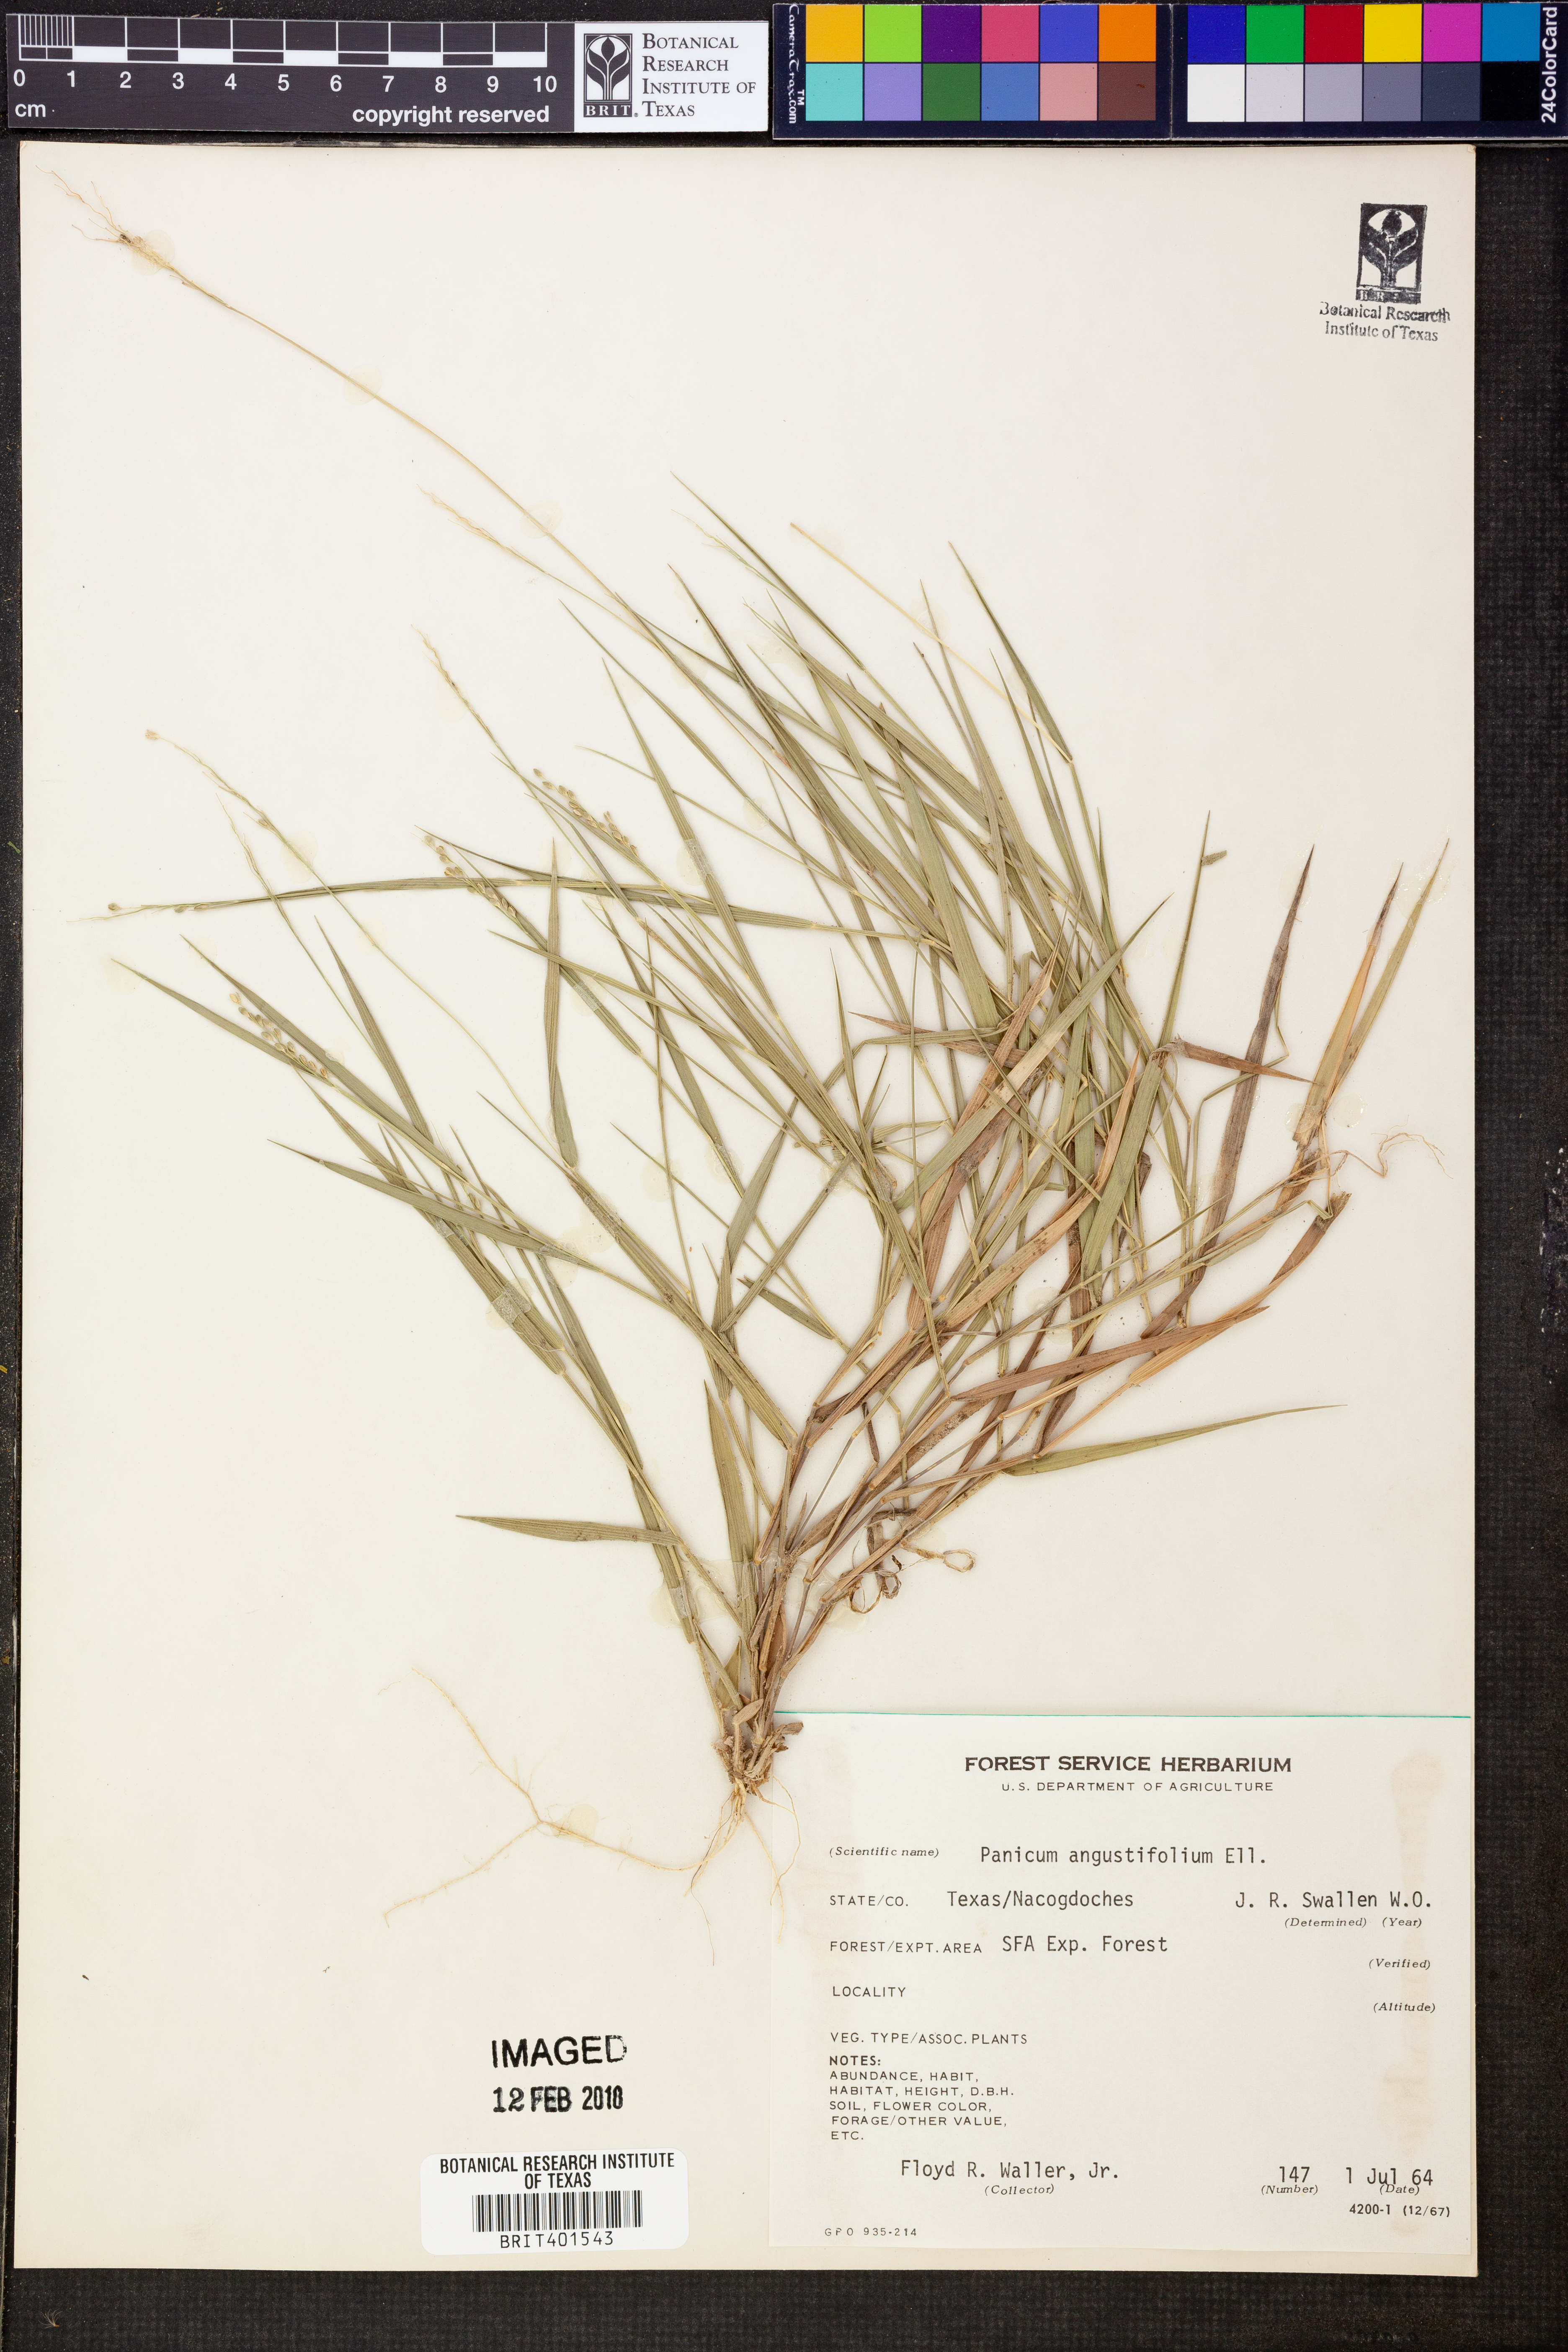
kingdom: Plantae
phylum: Tracheophyta
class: Liliopsida
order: Poales
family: Poaceae
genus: Dichanthelium
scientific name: Dichanthelium dichotomum
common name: Cypress panicgrass
